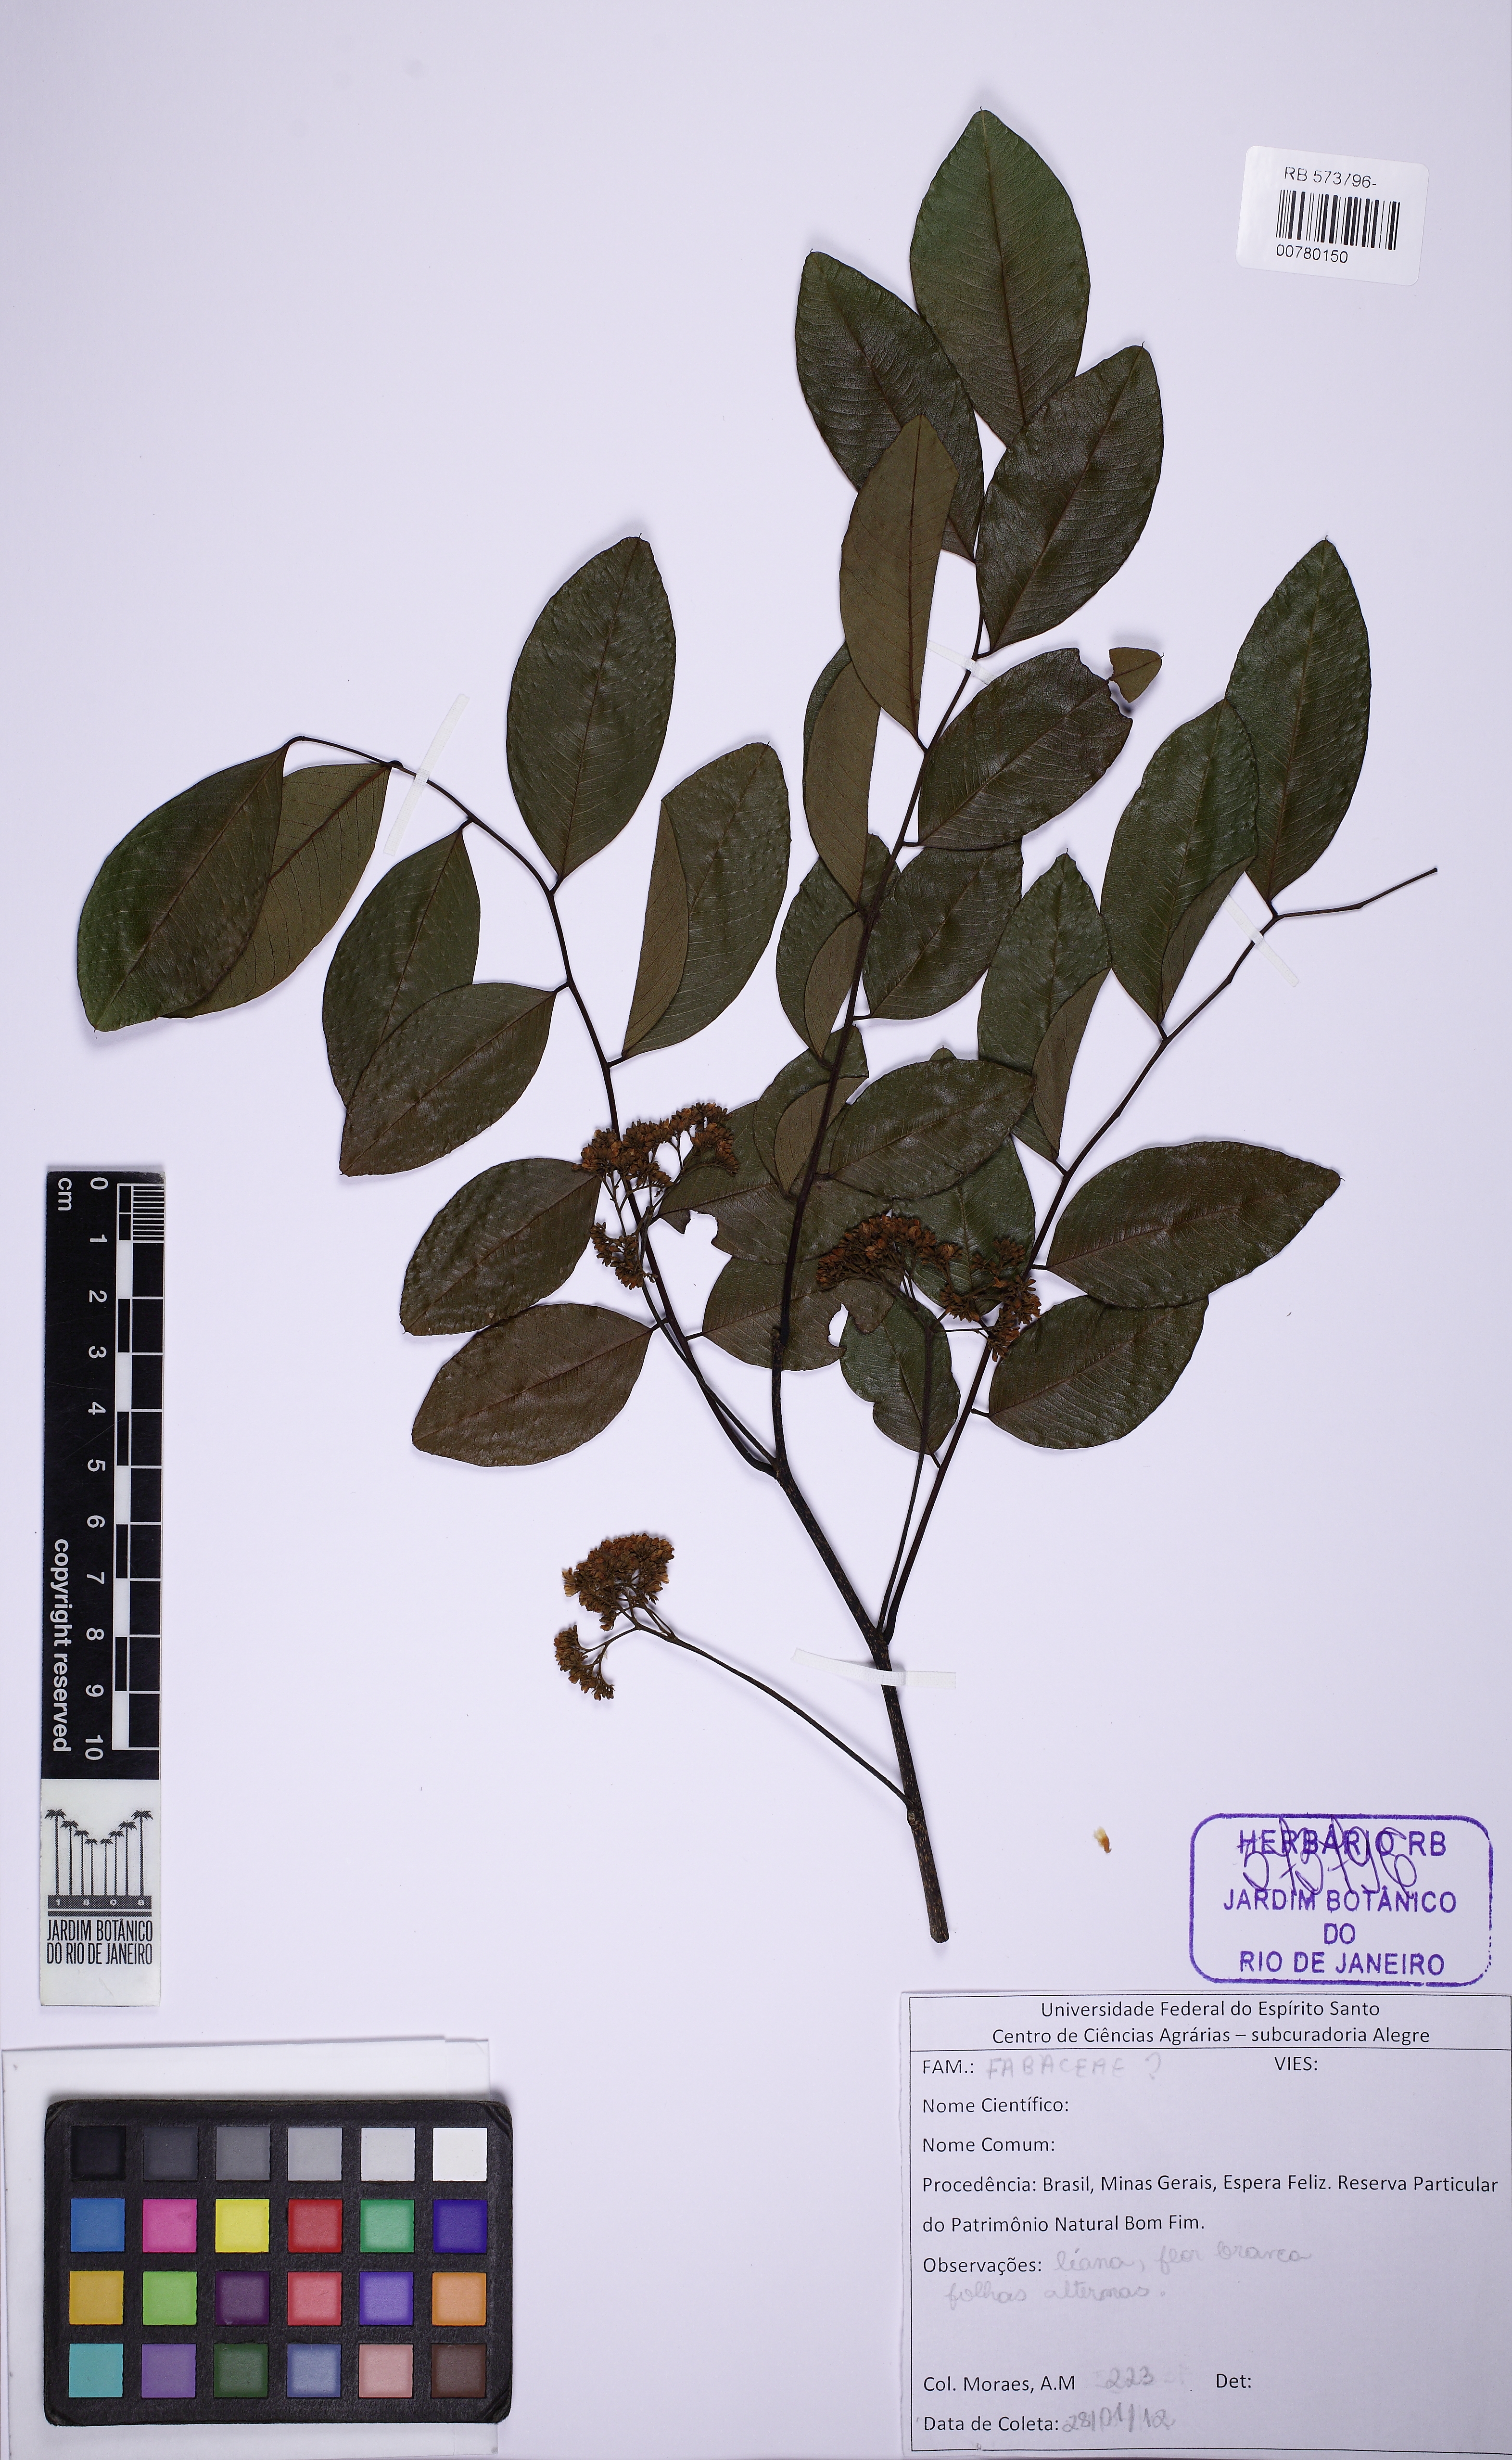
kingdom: Plantae
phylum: Tracheophyta
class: Magnoliopsida
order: Fabales
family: Fabaceae
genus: Dalbergia
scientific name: Dalbergia
